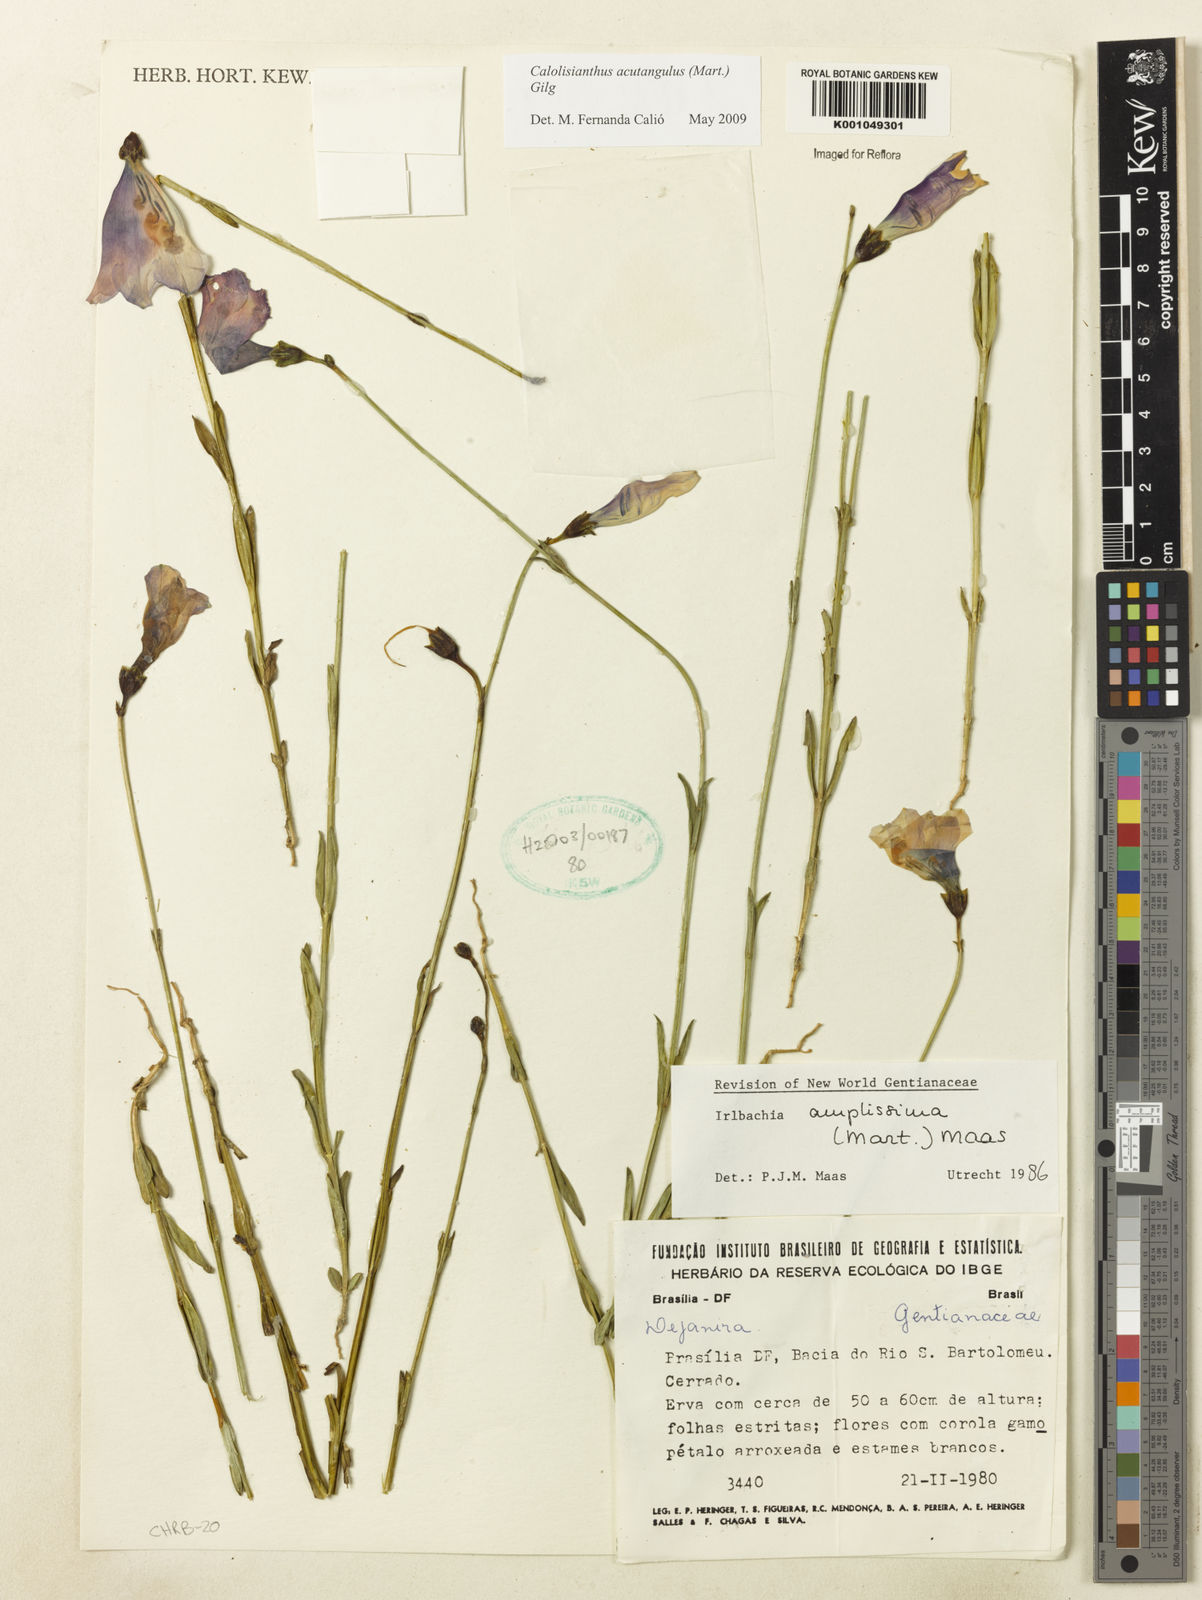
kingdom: Plantae
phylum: Tracheophyta
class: Magnoliopsida
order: Gentianales
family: Gentianaceae
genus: Lisianthius
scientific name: Lisianthius tetragonoalatus
